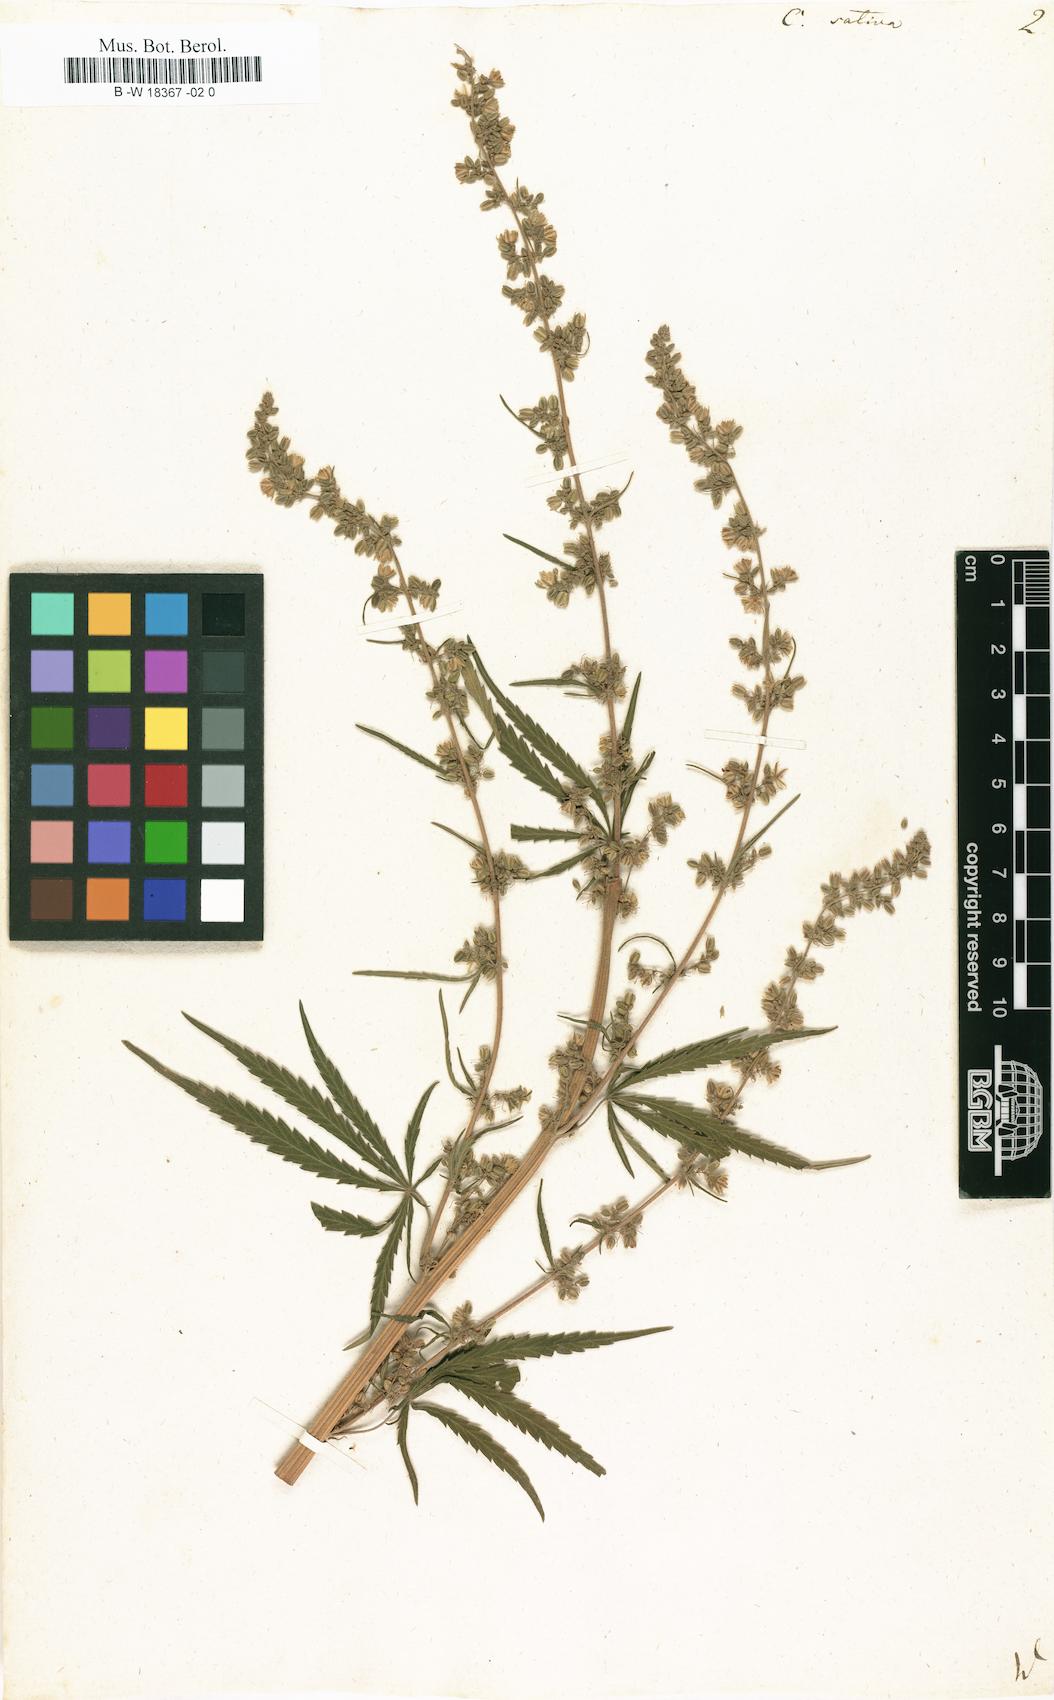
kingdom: Plantae
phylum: Tracheophyta
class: Magnoliopsida
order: Rosales
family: Cannabaceae
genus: Cannabis
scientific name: Cannabis sativa
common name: Hemp
